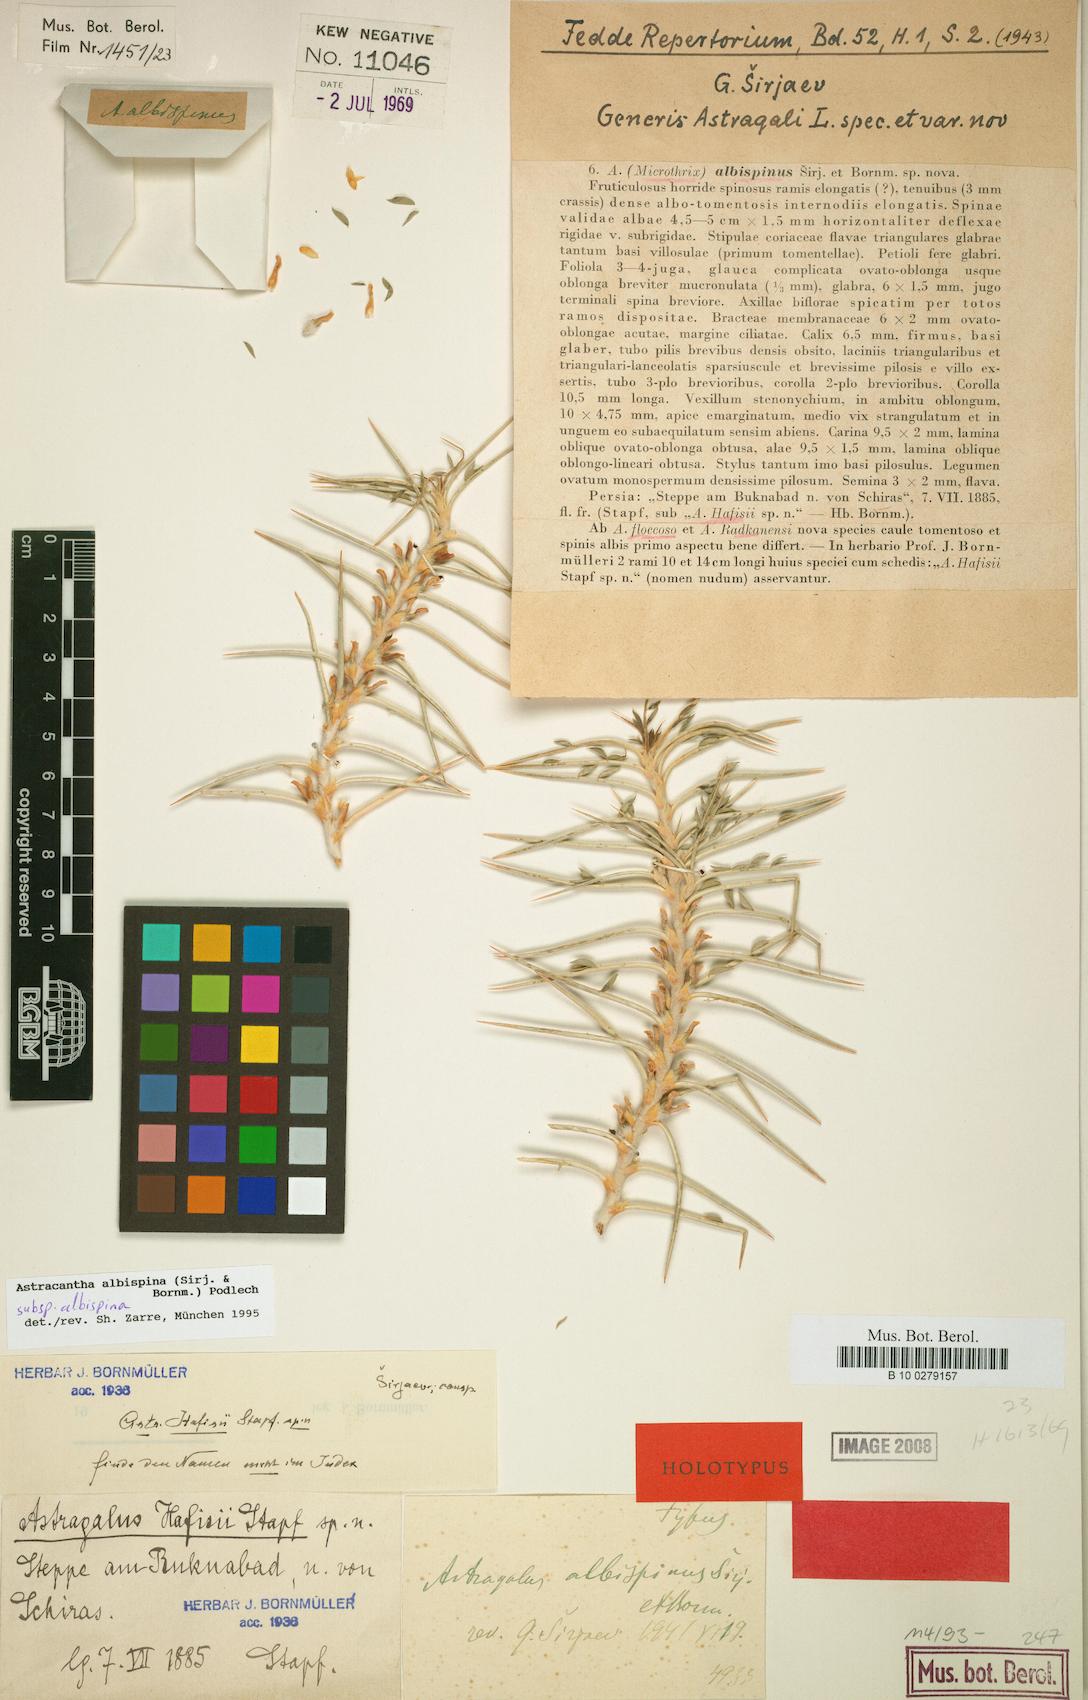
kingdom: Plantae
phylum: Tracheophyta
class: Magnoliopsida
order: Fabales
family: Fabaceae
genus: Astragalus
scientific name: Astragalus albispinus
